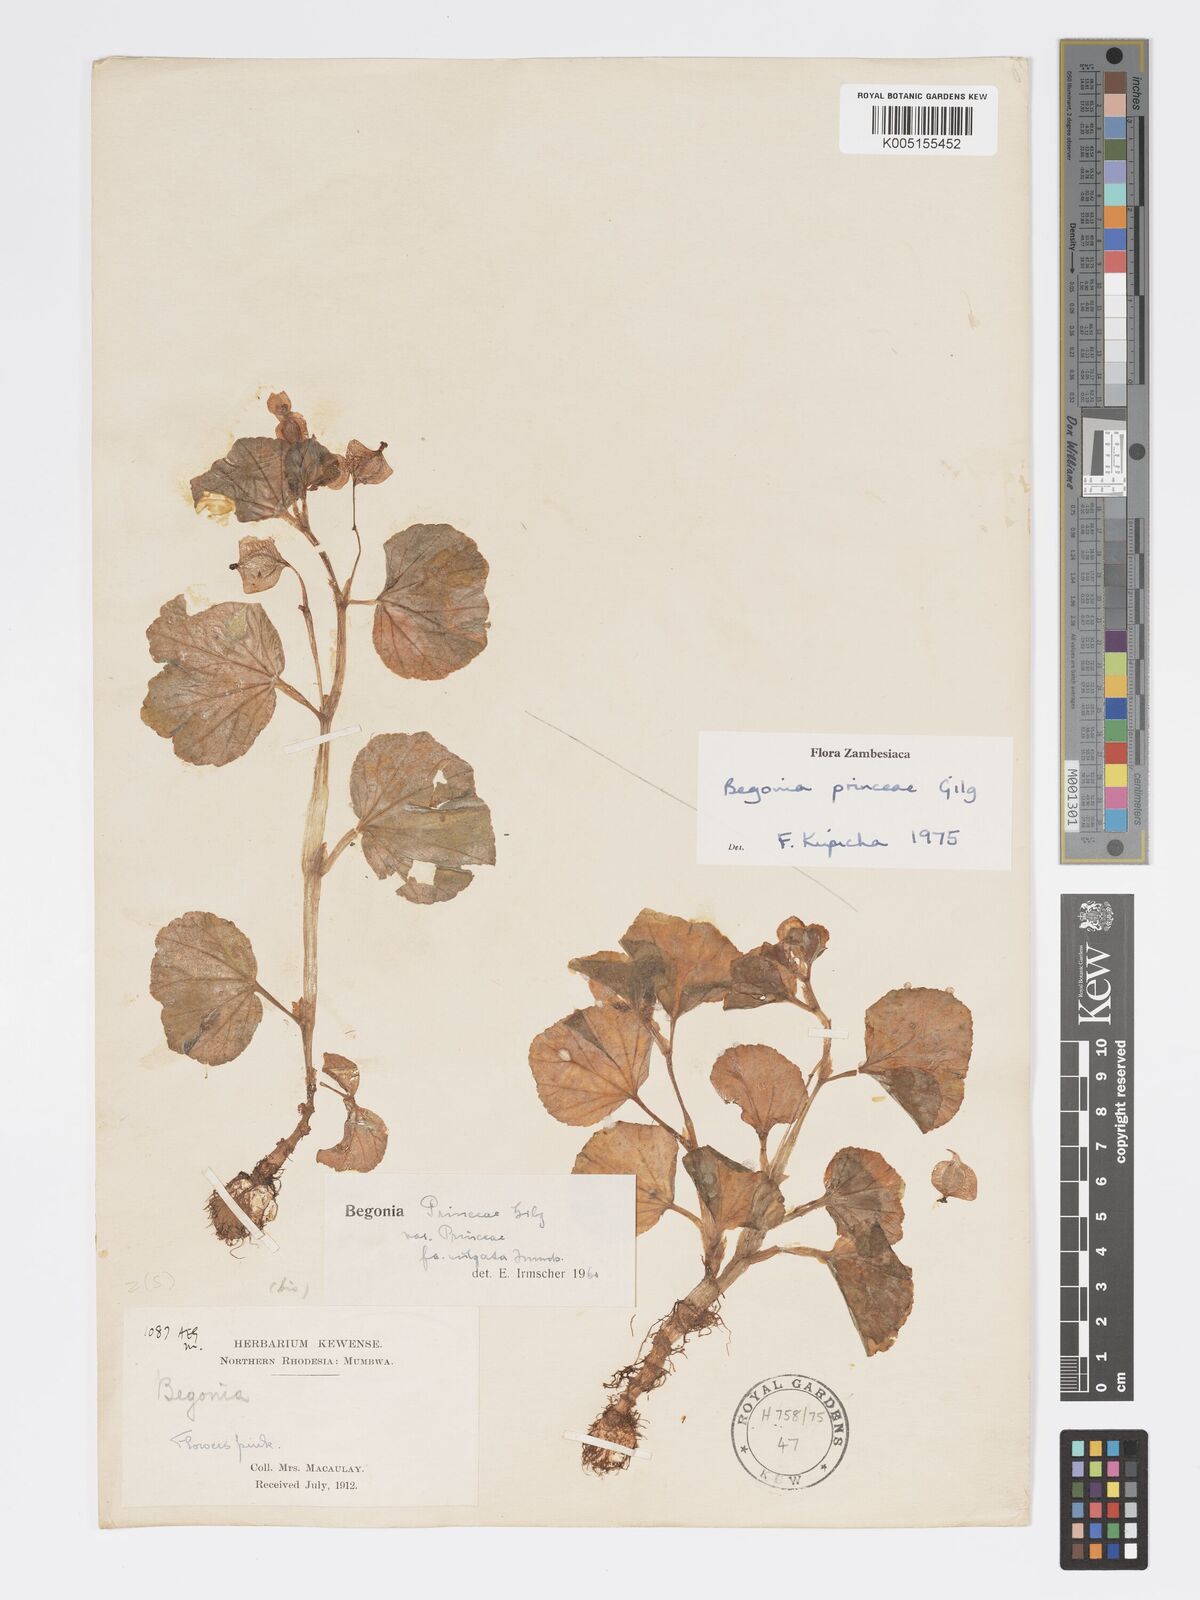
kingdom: Plantae
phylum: Tracheophyta
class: Magnoliopsida
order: Cucurbitales
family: Begoniaceae
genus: Begonia
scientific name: Begonia princeae
